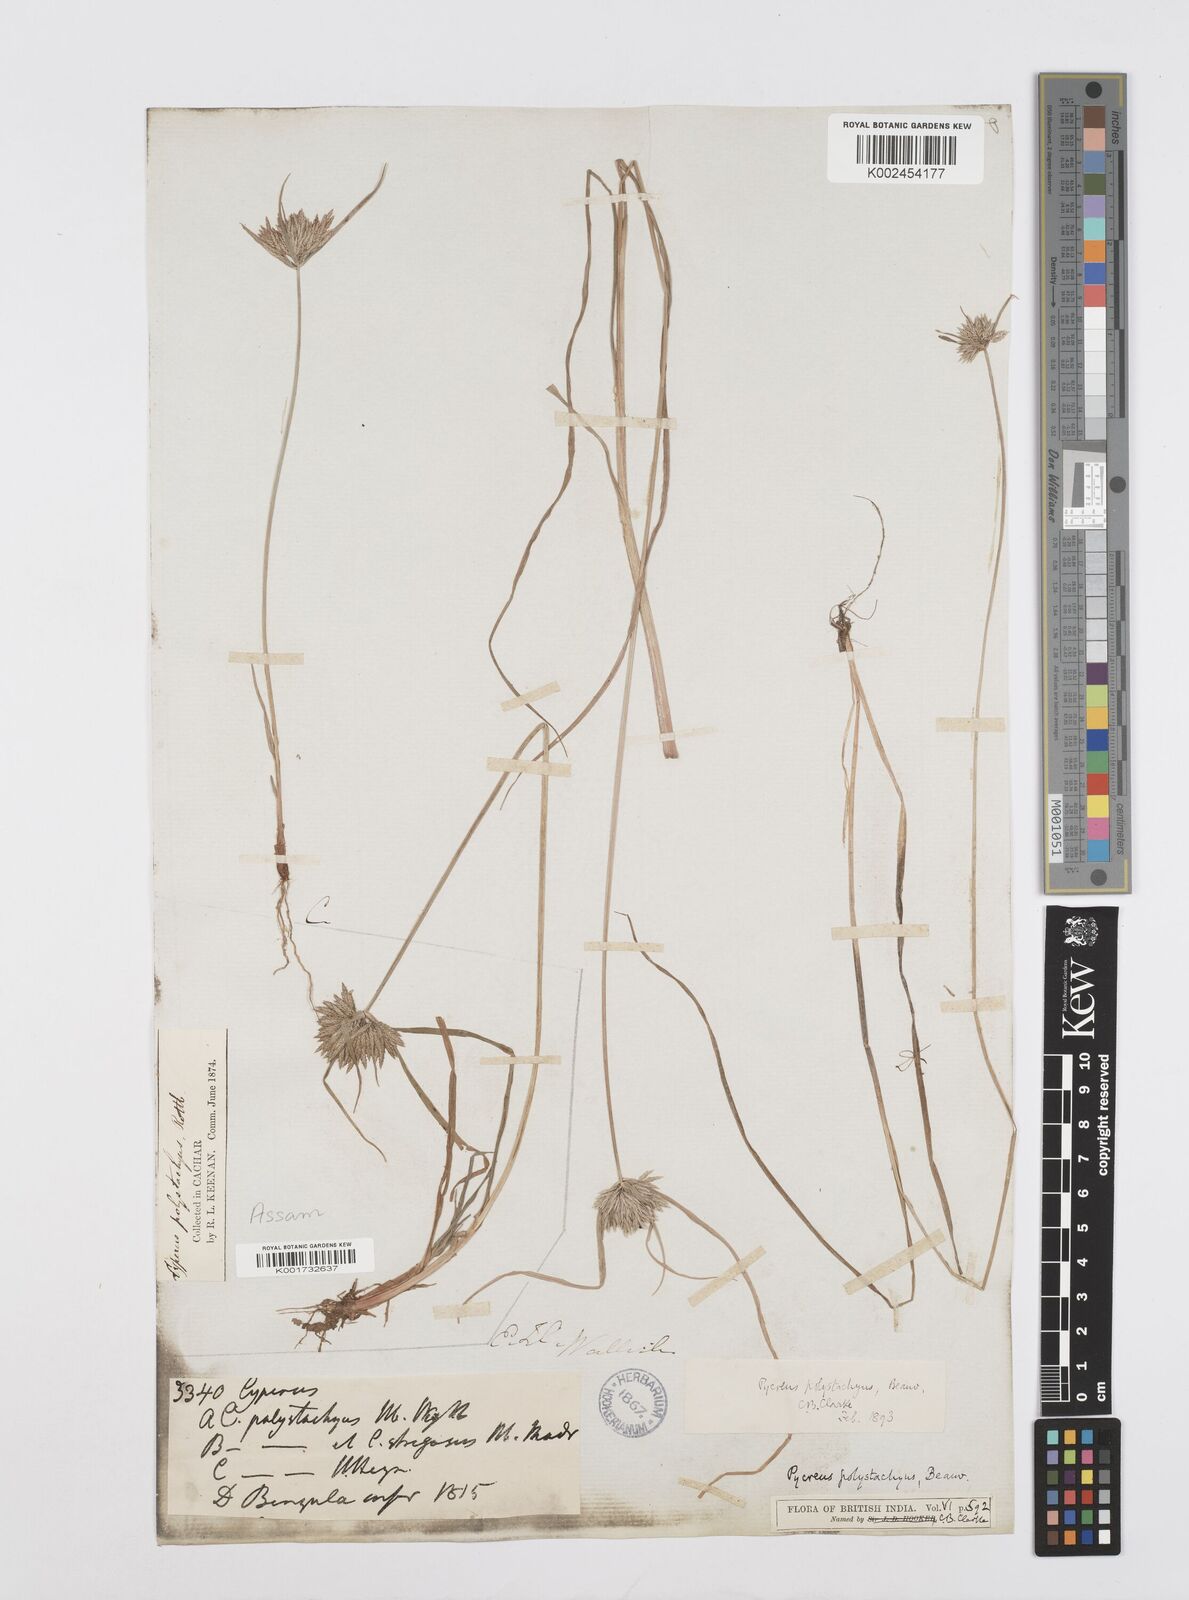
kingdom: Plantae
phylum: Tracheophyta
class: Liliopsida
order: Poales
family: Cyperaceae
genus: Cyperus
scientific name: Cyperus polystachyos
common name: Bunchy flat sedge
